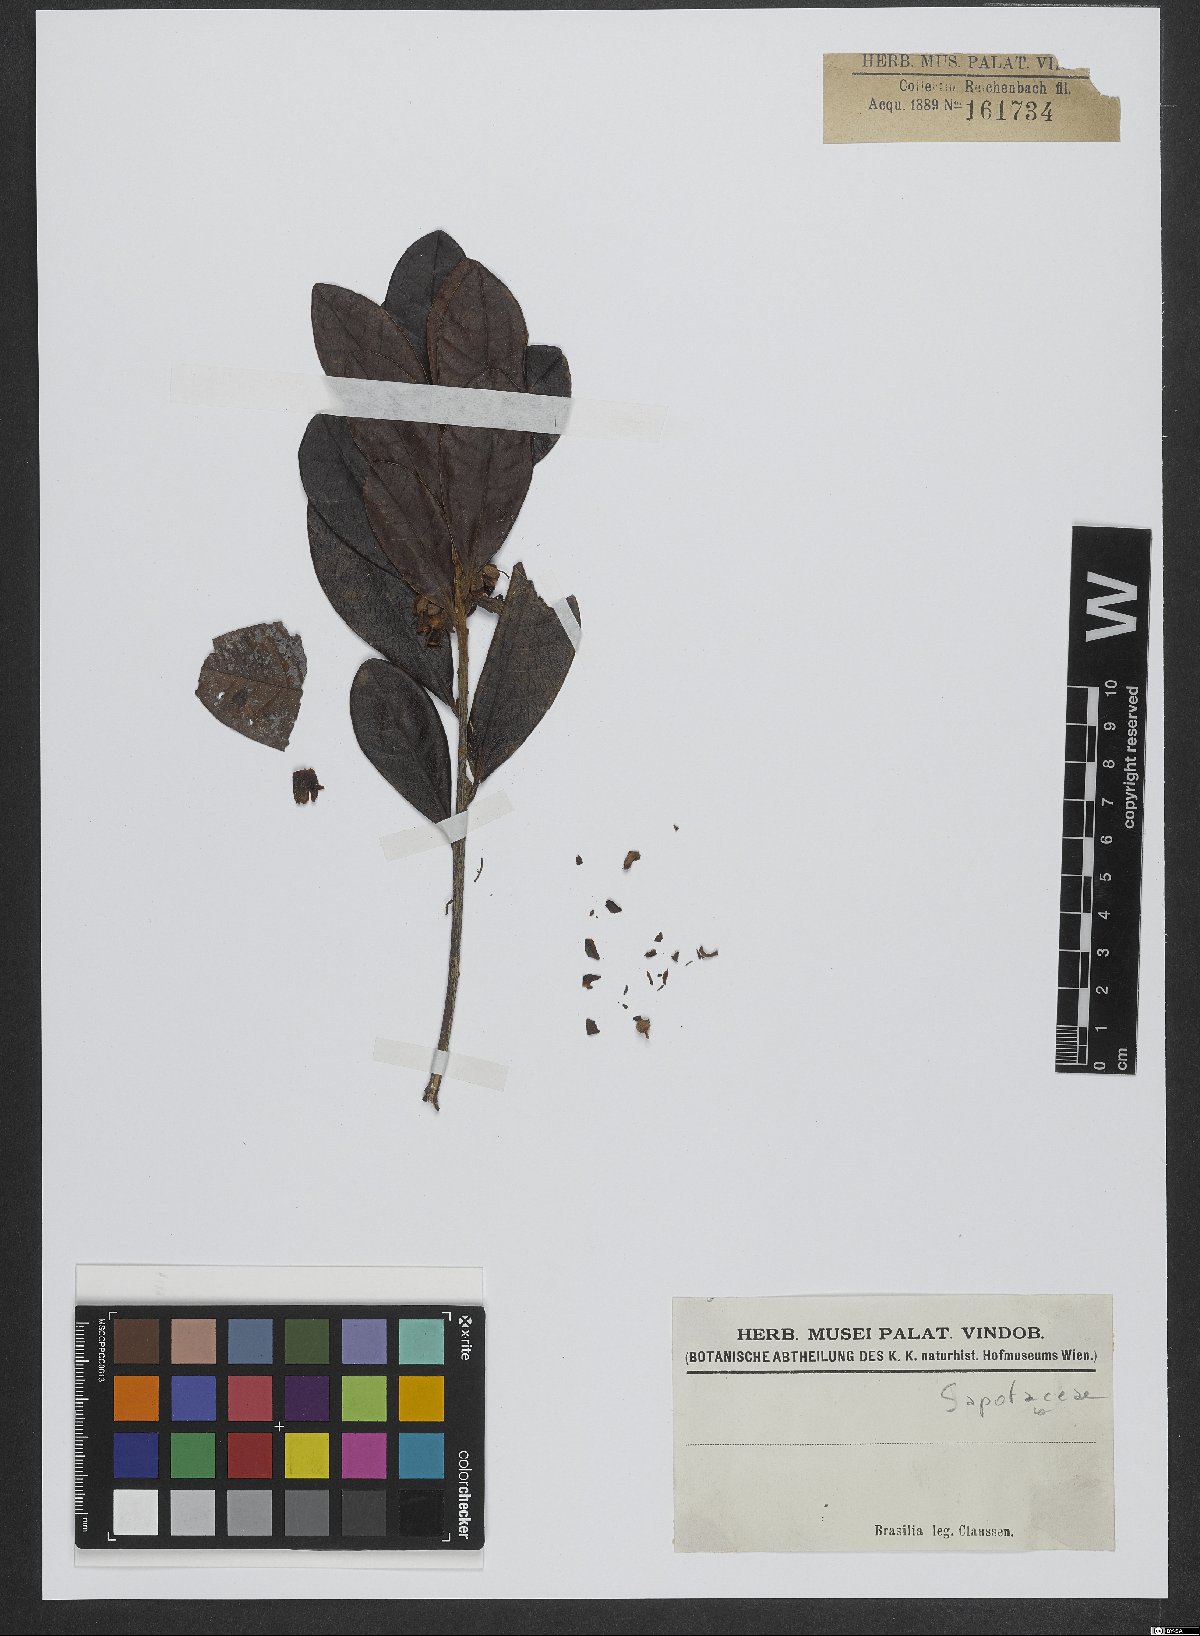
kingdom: Plantae
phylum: Tracheophyta
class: Magnoliopsida
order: Ericales
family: Sapotaceae
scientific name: Sapotaceae
